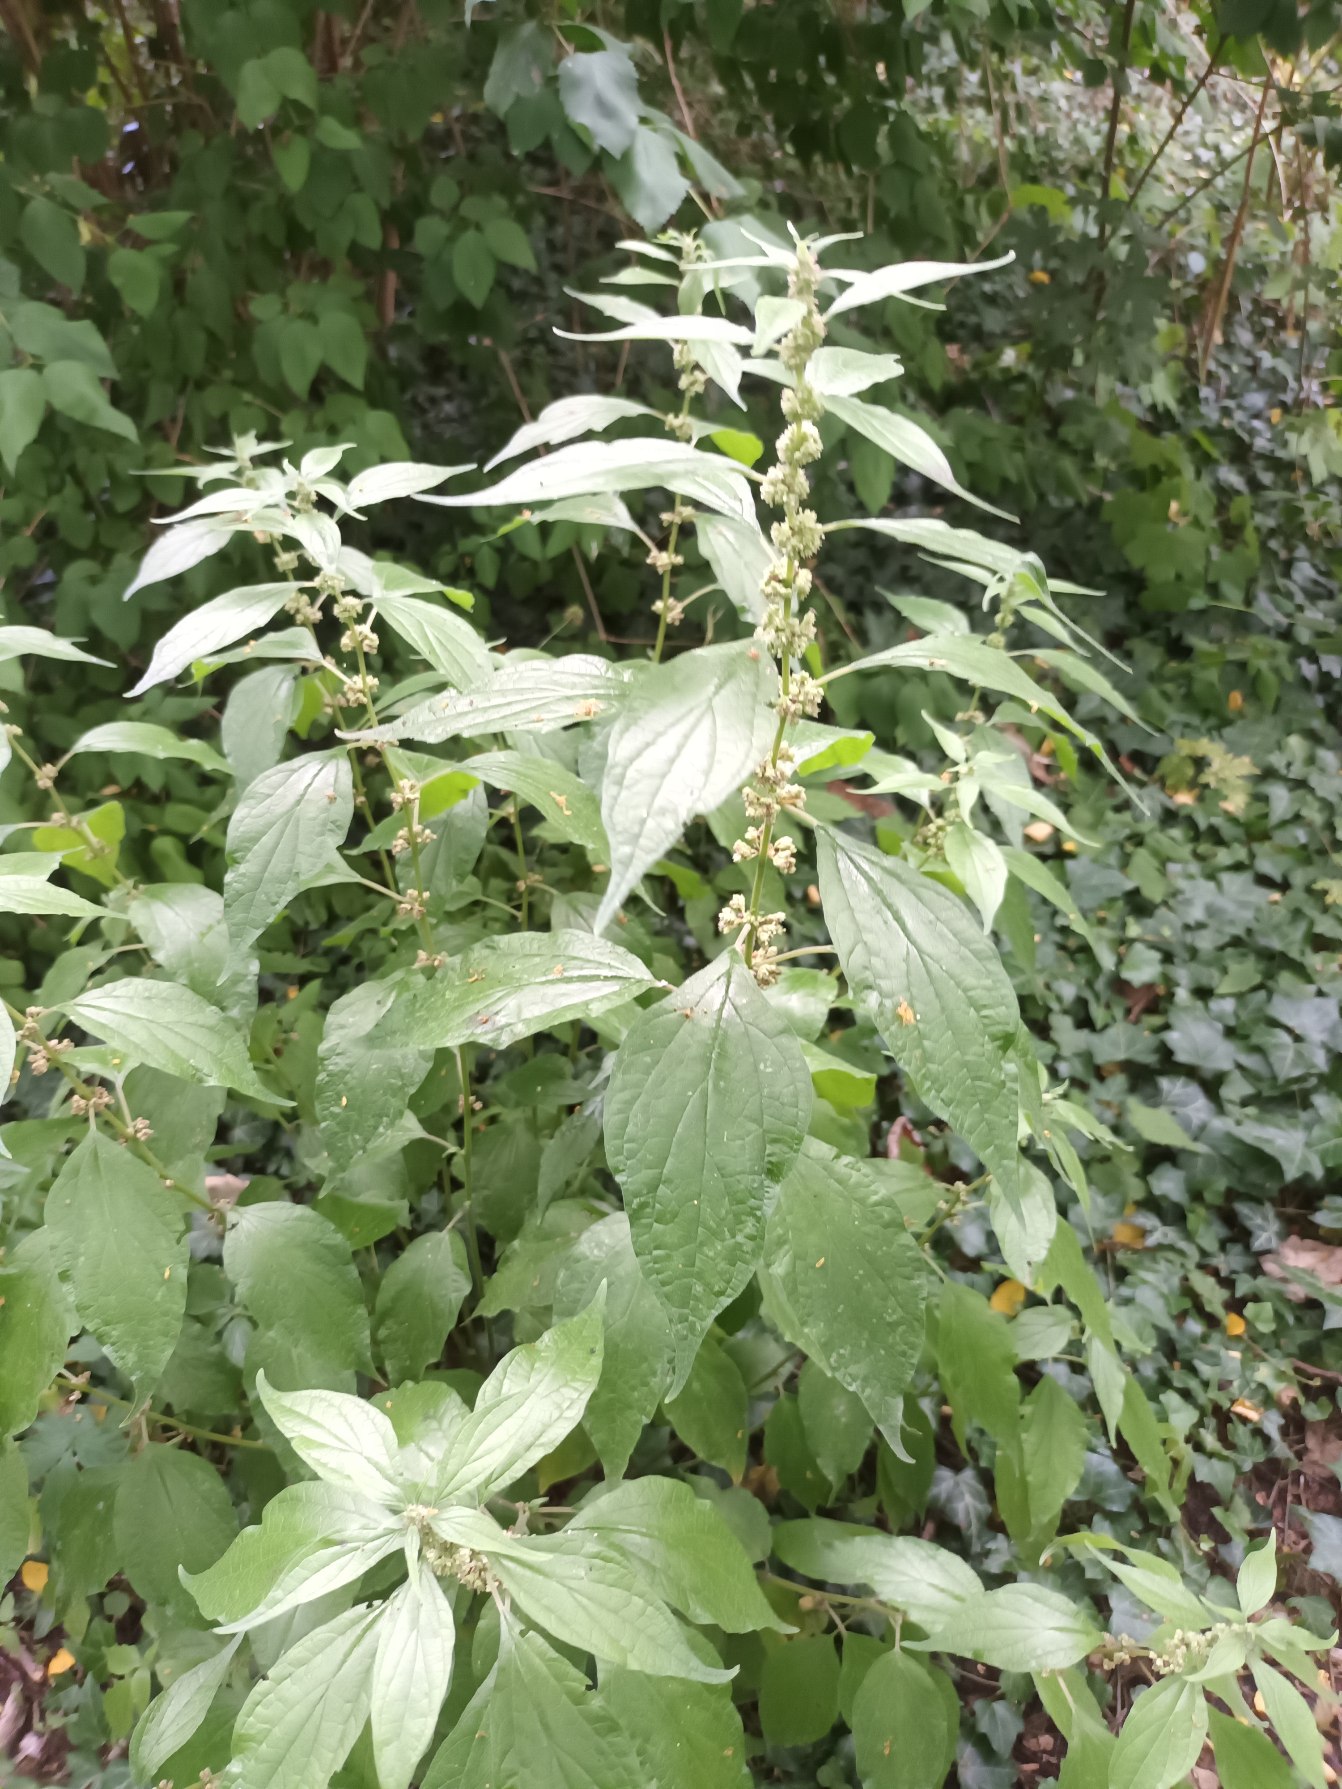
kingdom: Plantae
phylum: Tracheophyta
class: Magnoliopsida
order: Rosales
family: Urticaceae
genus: Parietaria
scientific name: Parietaria officinalis
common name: Almindelig springknap
